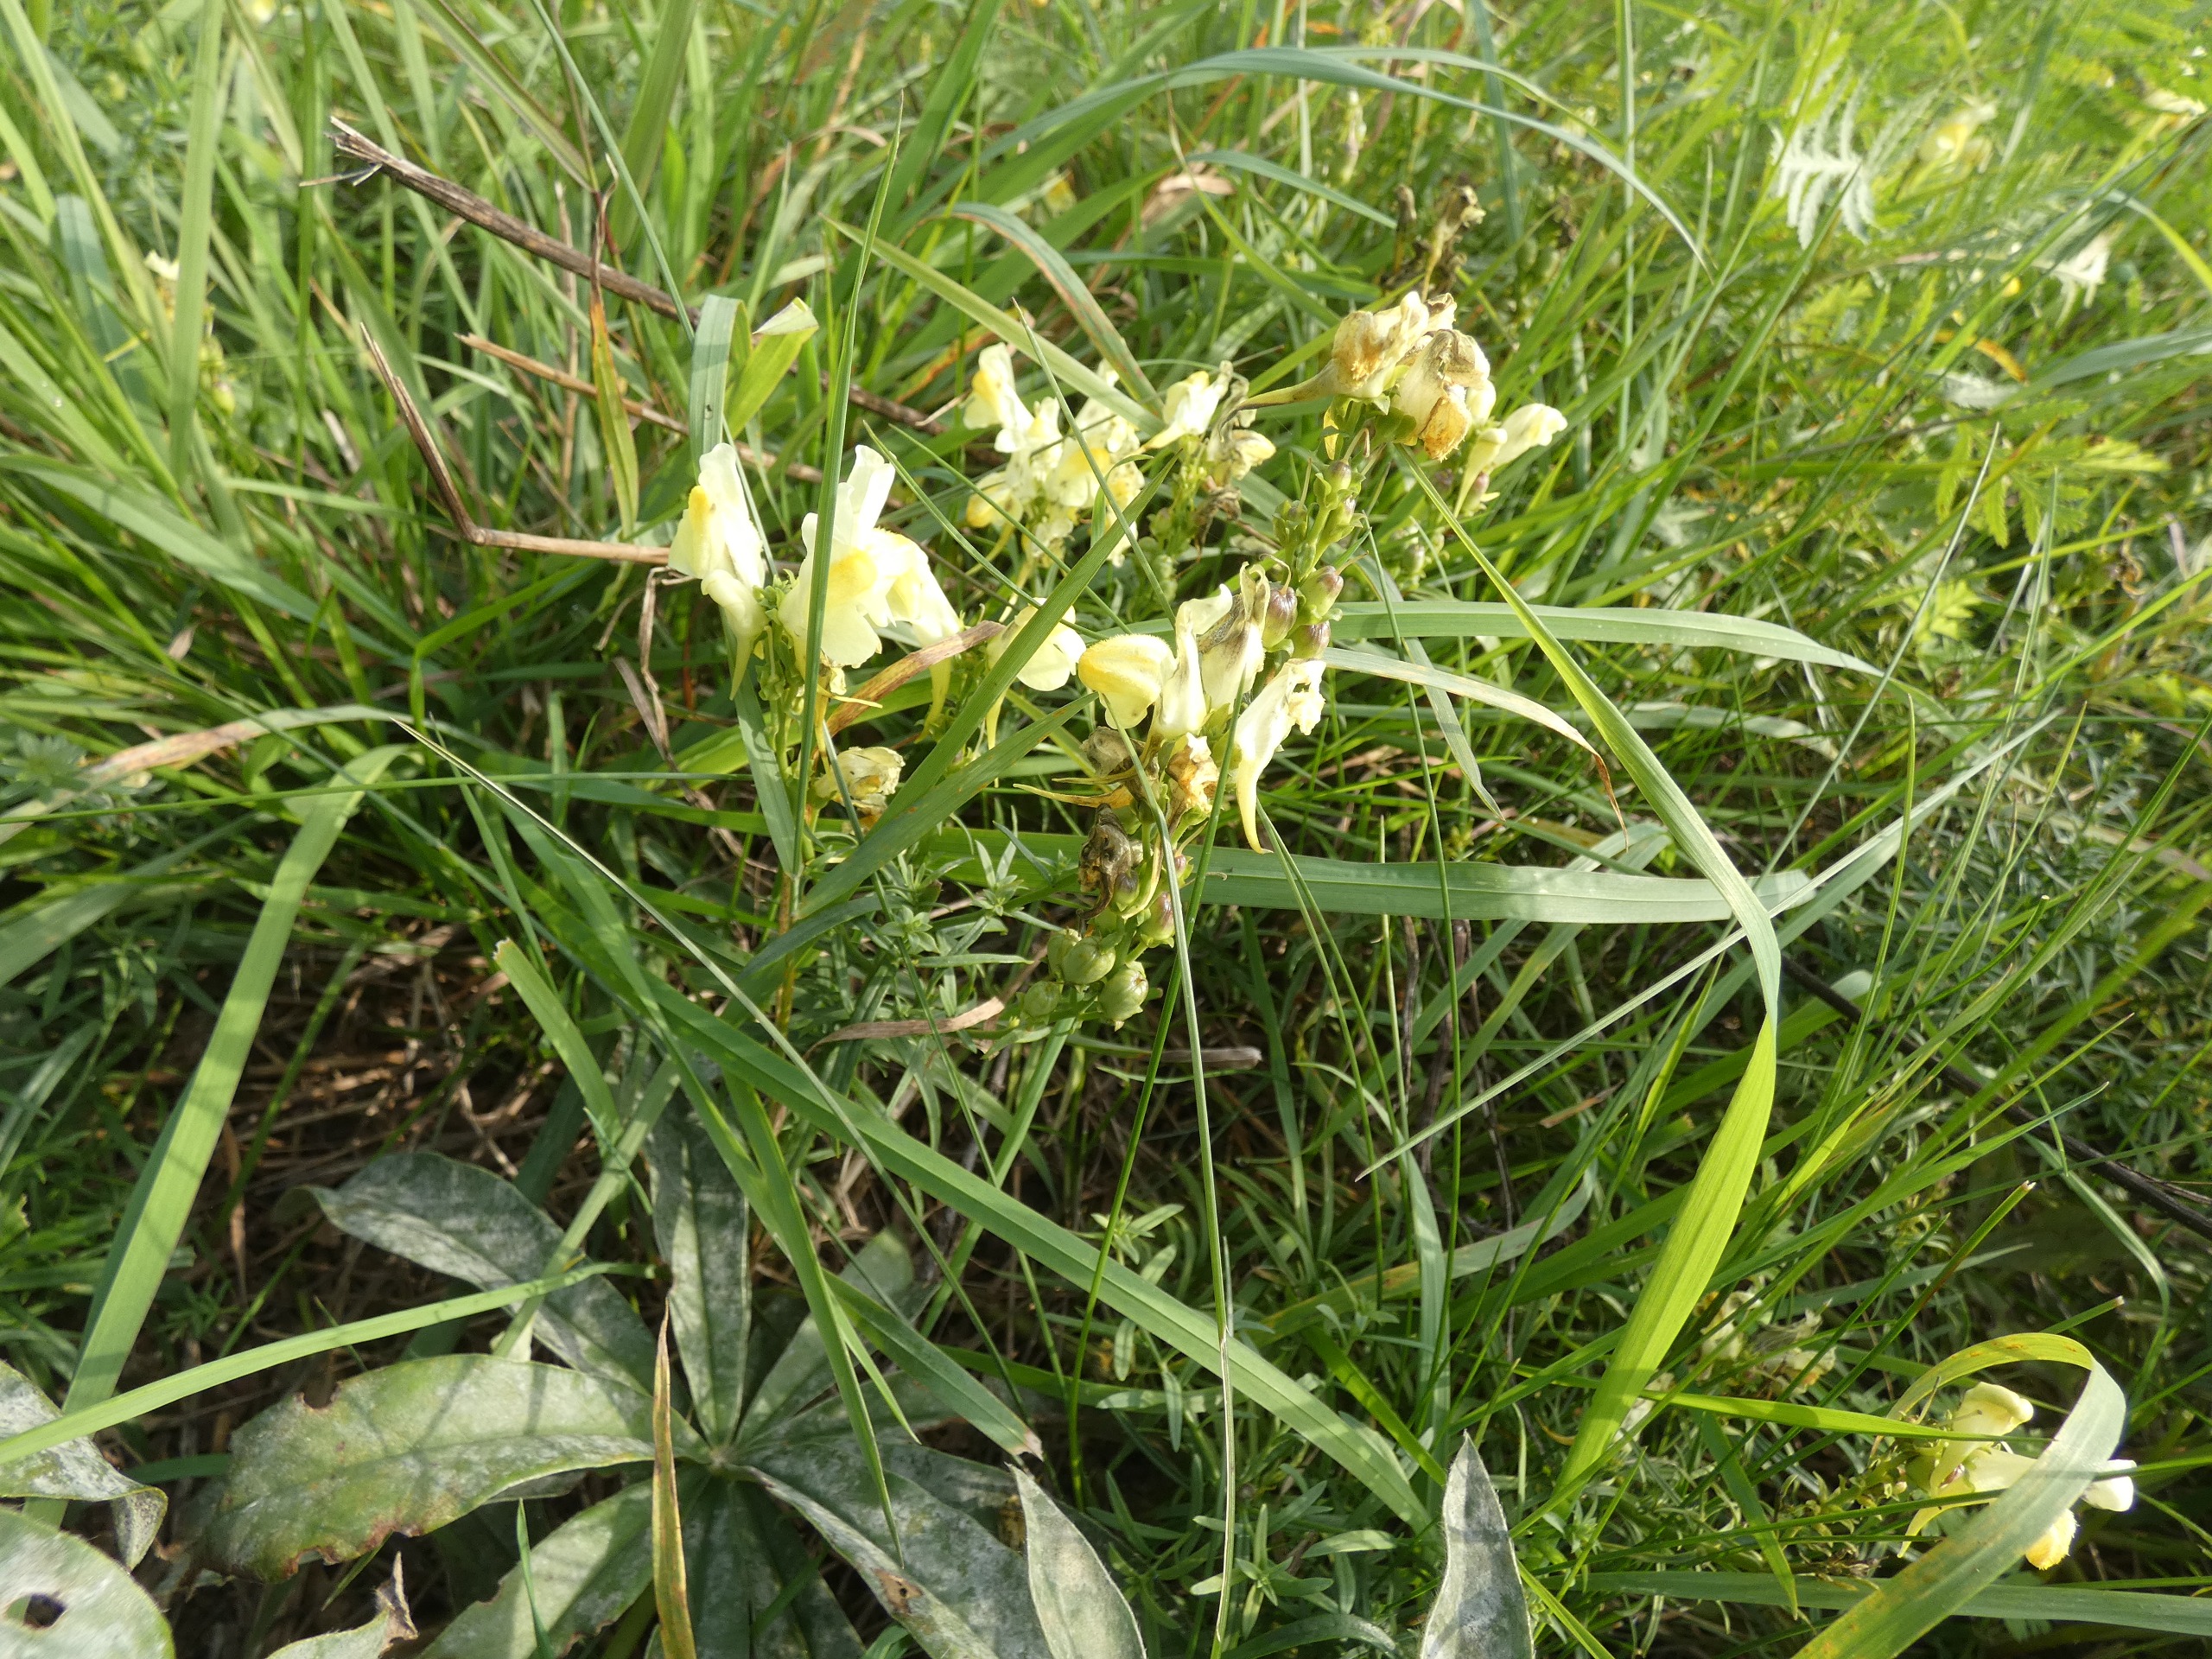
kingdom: Plantae
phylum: Tracheophyta
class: Magnoliopsida
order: Lamiales
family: Plantaginaceae
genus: Linaria
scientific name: Linaria vulgaris
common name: Almindelig torskemund
